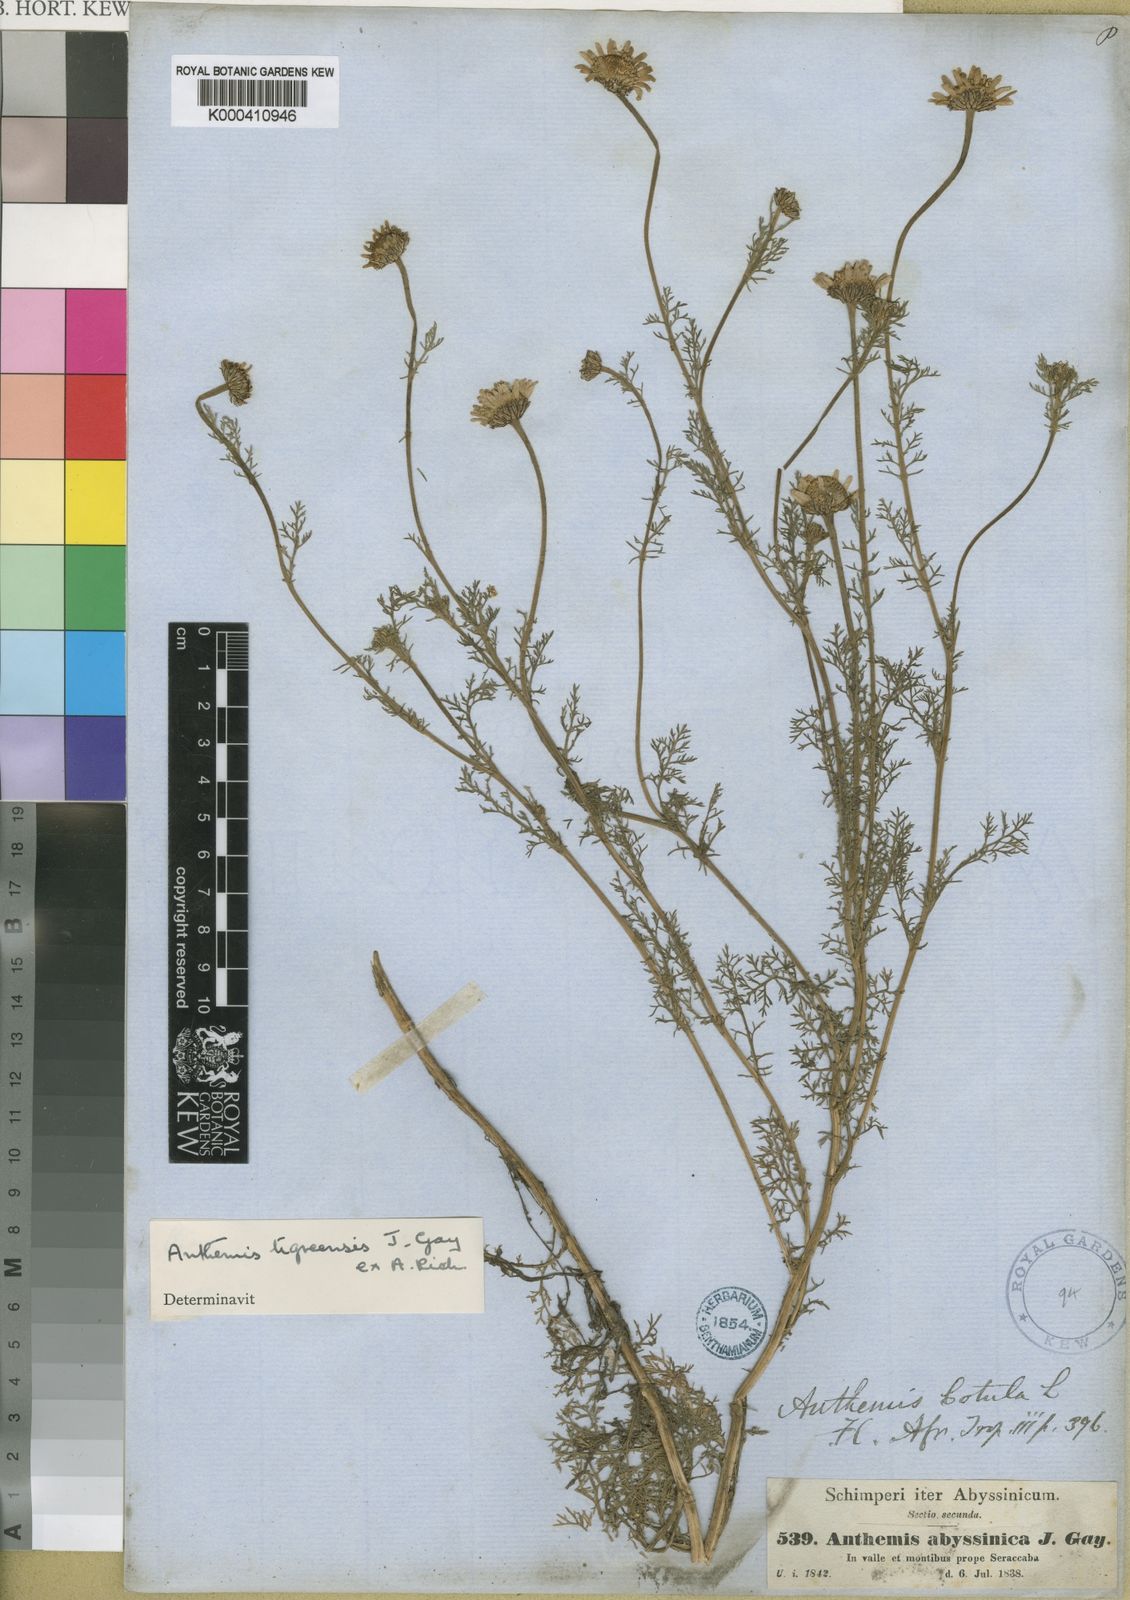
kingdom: Plantae
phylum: Tracheophyta
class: Magnoliopsida
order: Asterales
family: Asteraceae
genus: Eclipta
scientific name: Eclipta alba
